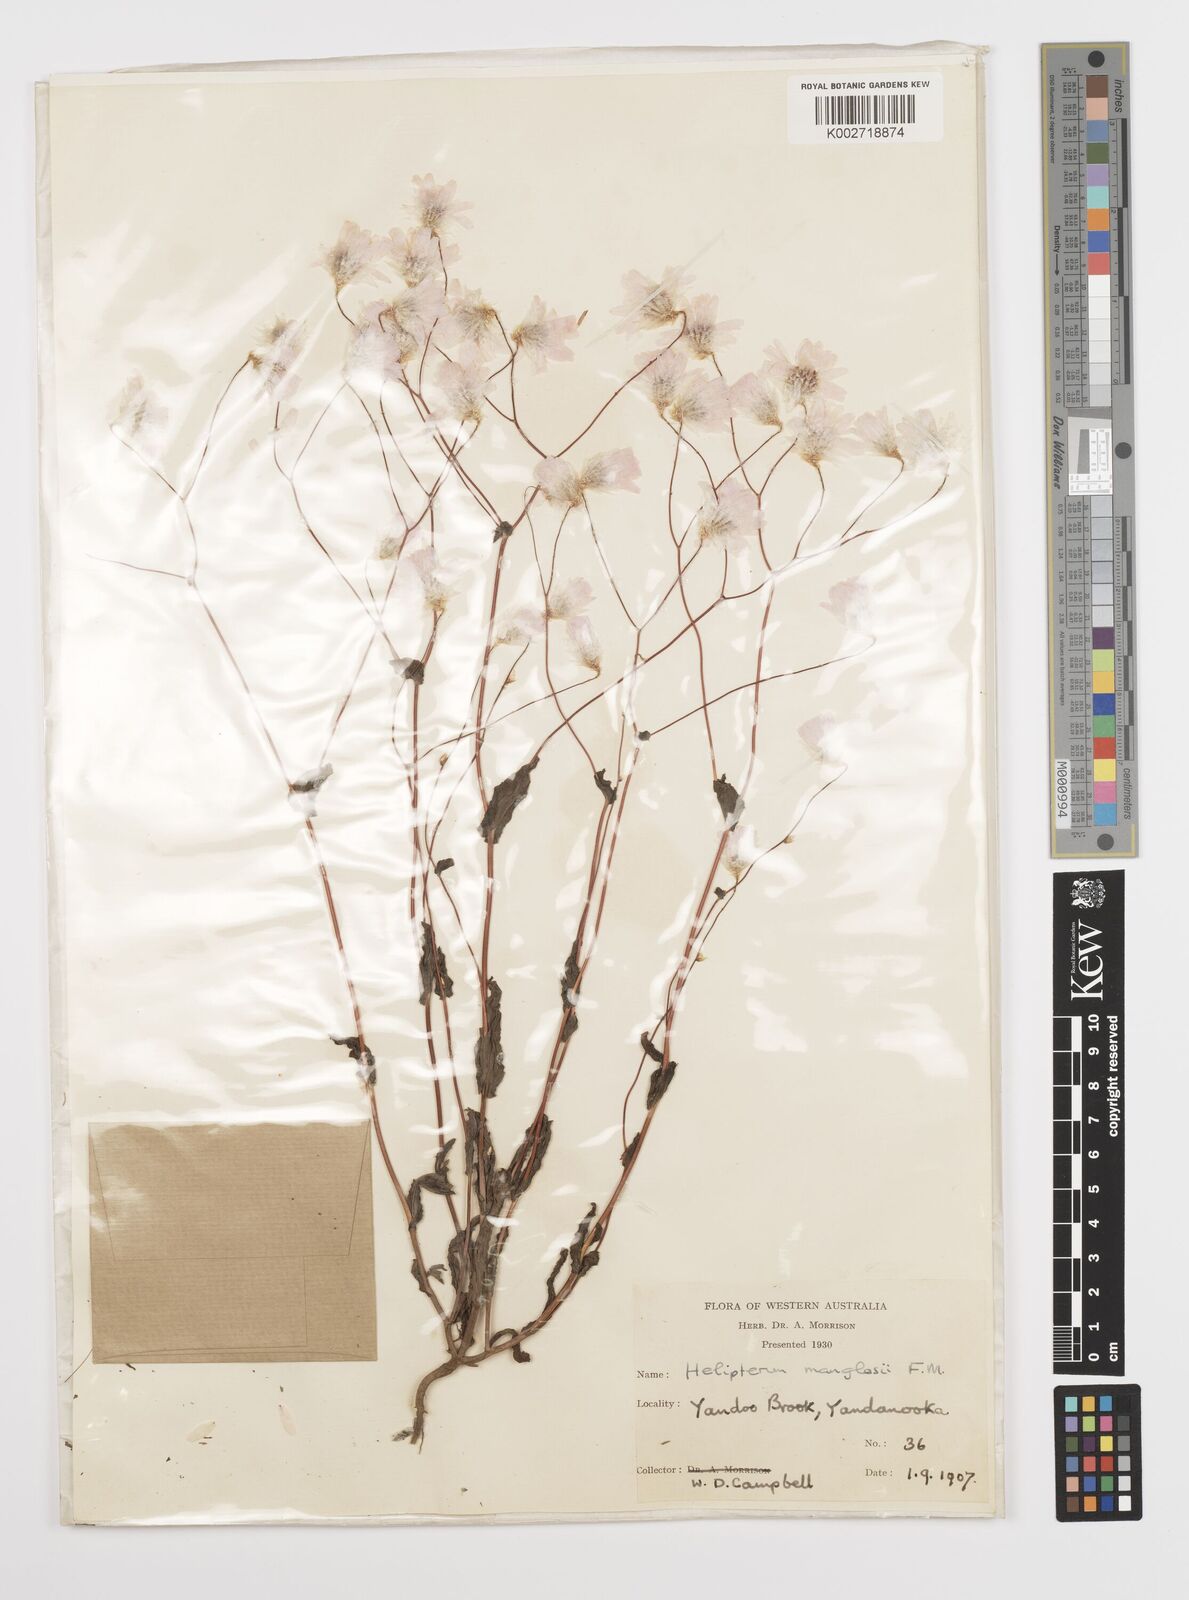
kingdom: Plantae
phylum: Tracheophyta
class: Magnoliopsida
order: Asterales
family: Asteraceae
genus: Rhodanthe
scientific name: Rhodanthe manglesii
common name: Pink sunray
